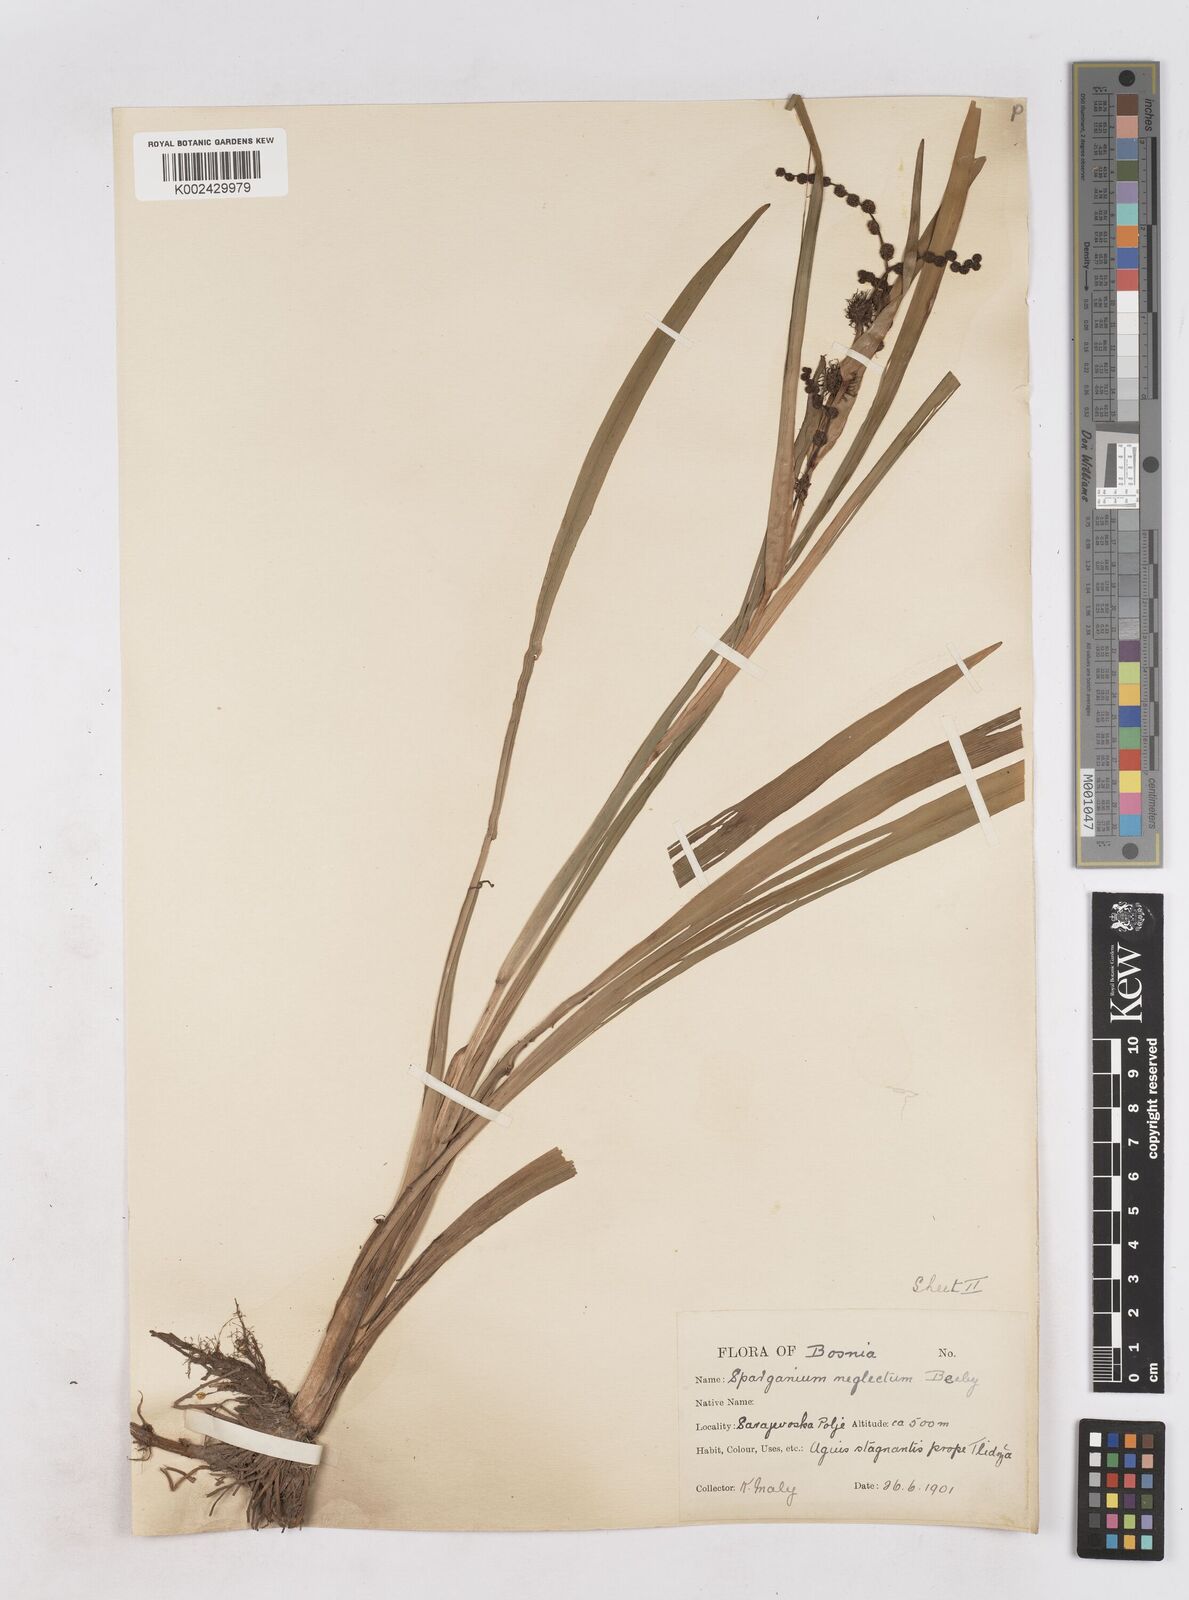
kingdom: Plantae
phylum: Tracheophyta
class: Liliopsida
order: Poales
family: Typhaceae
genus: Sparganium
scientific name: Sparganium erectum
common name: Branched bur-reed
